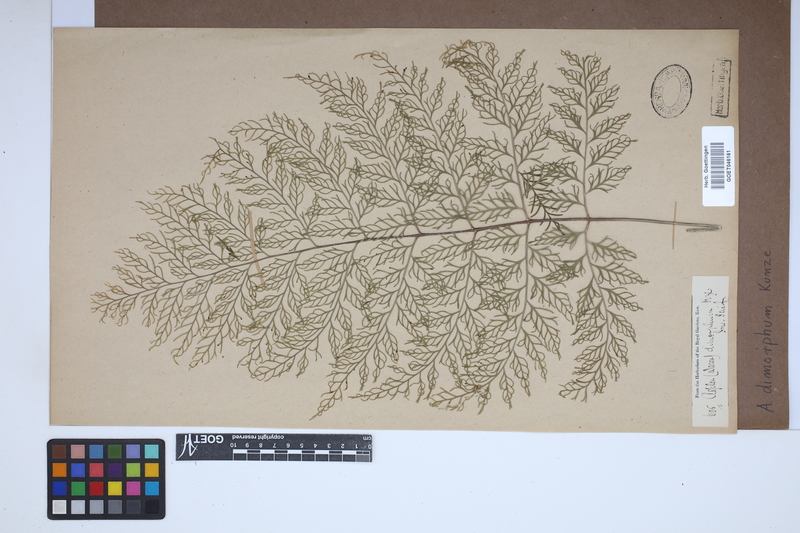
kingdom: Plantae
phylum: Tracheophyta
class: Polypodiopsida
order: Polypodiales
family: Aspleniaceae
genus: Asplenium
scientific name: Asplenium dimorphum
